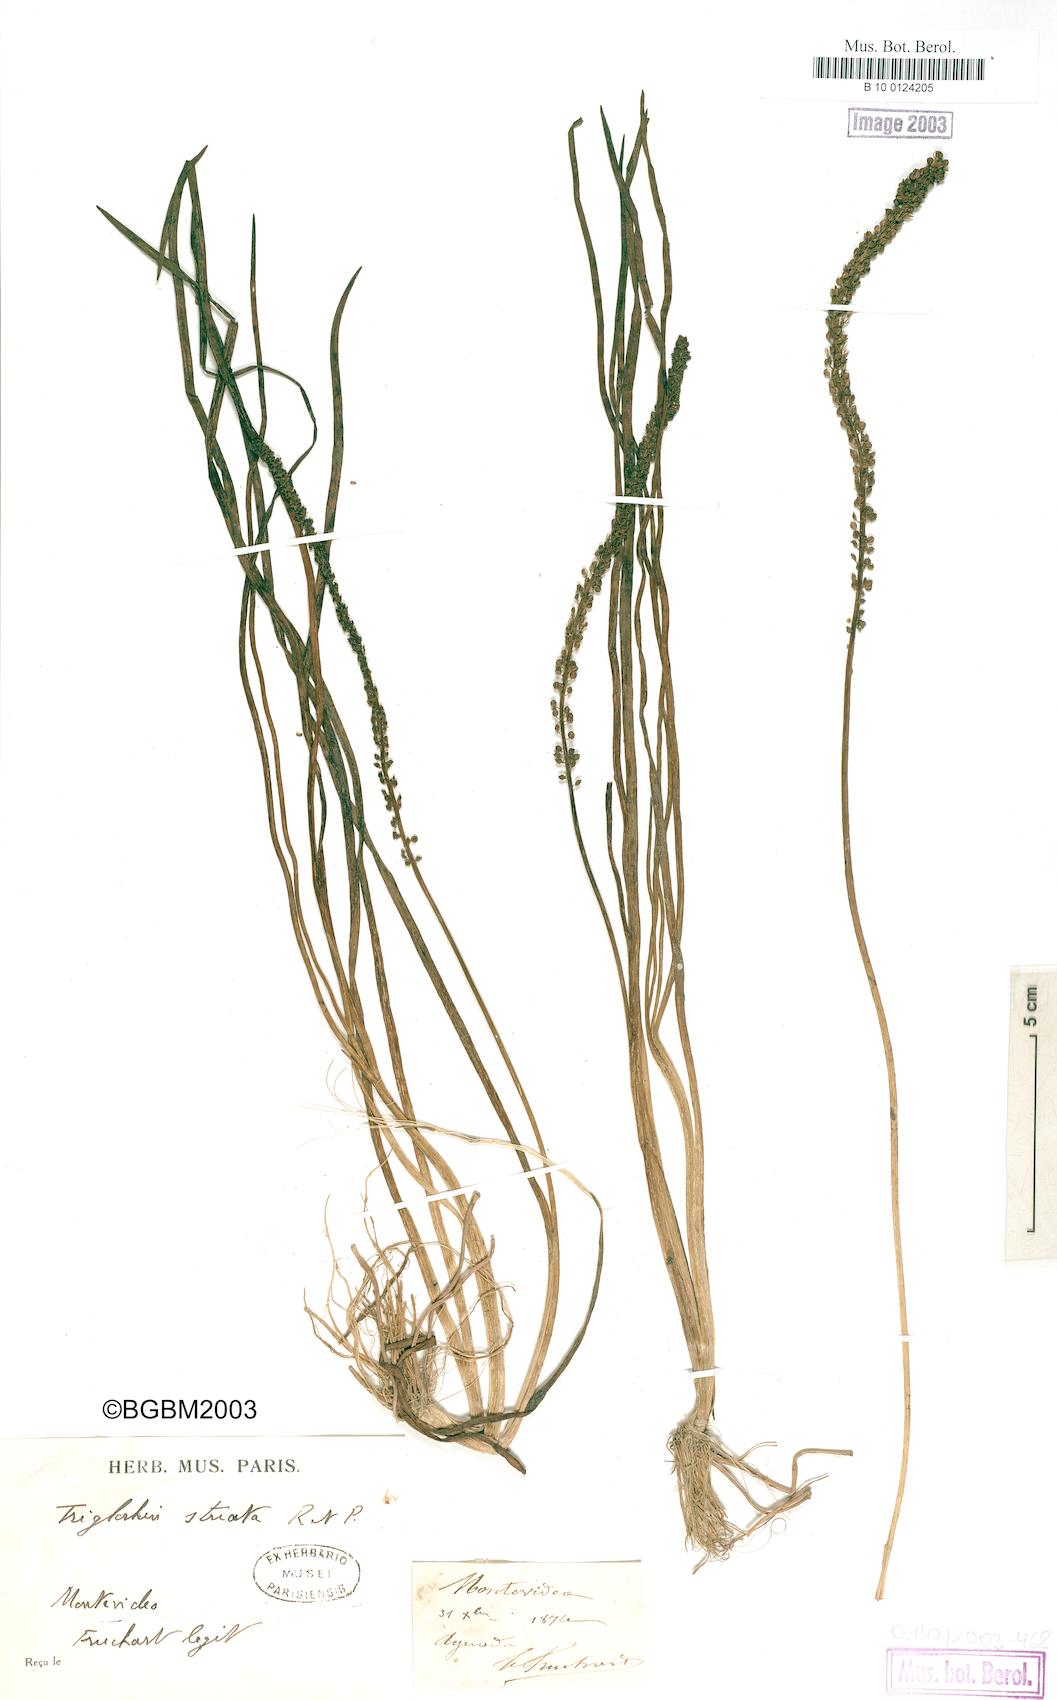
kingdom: Plantae
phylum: Tracheophyta
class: Liliopsida
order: Alismatales
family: Juncaginaceae
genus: Triglochin
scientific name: Triglochin striata
